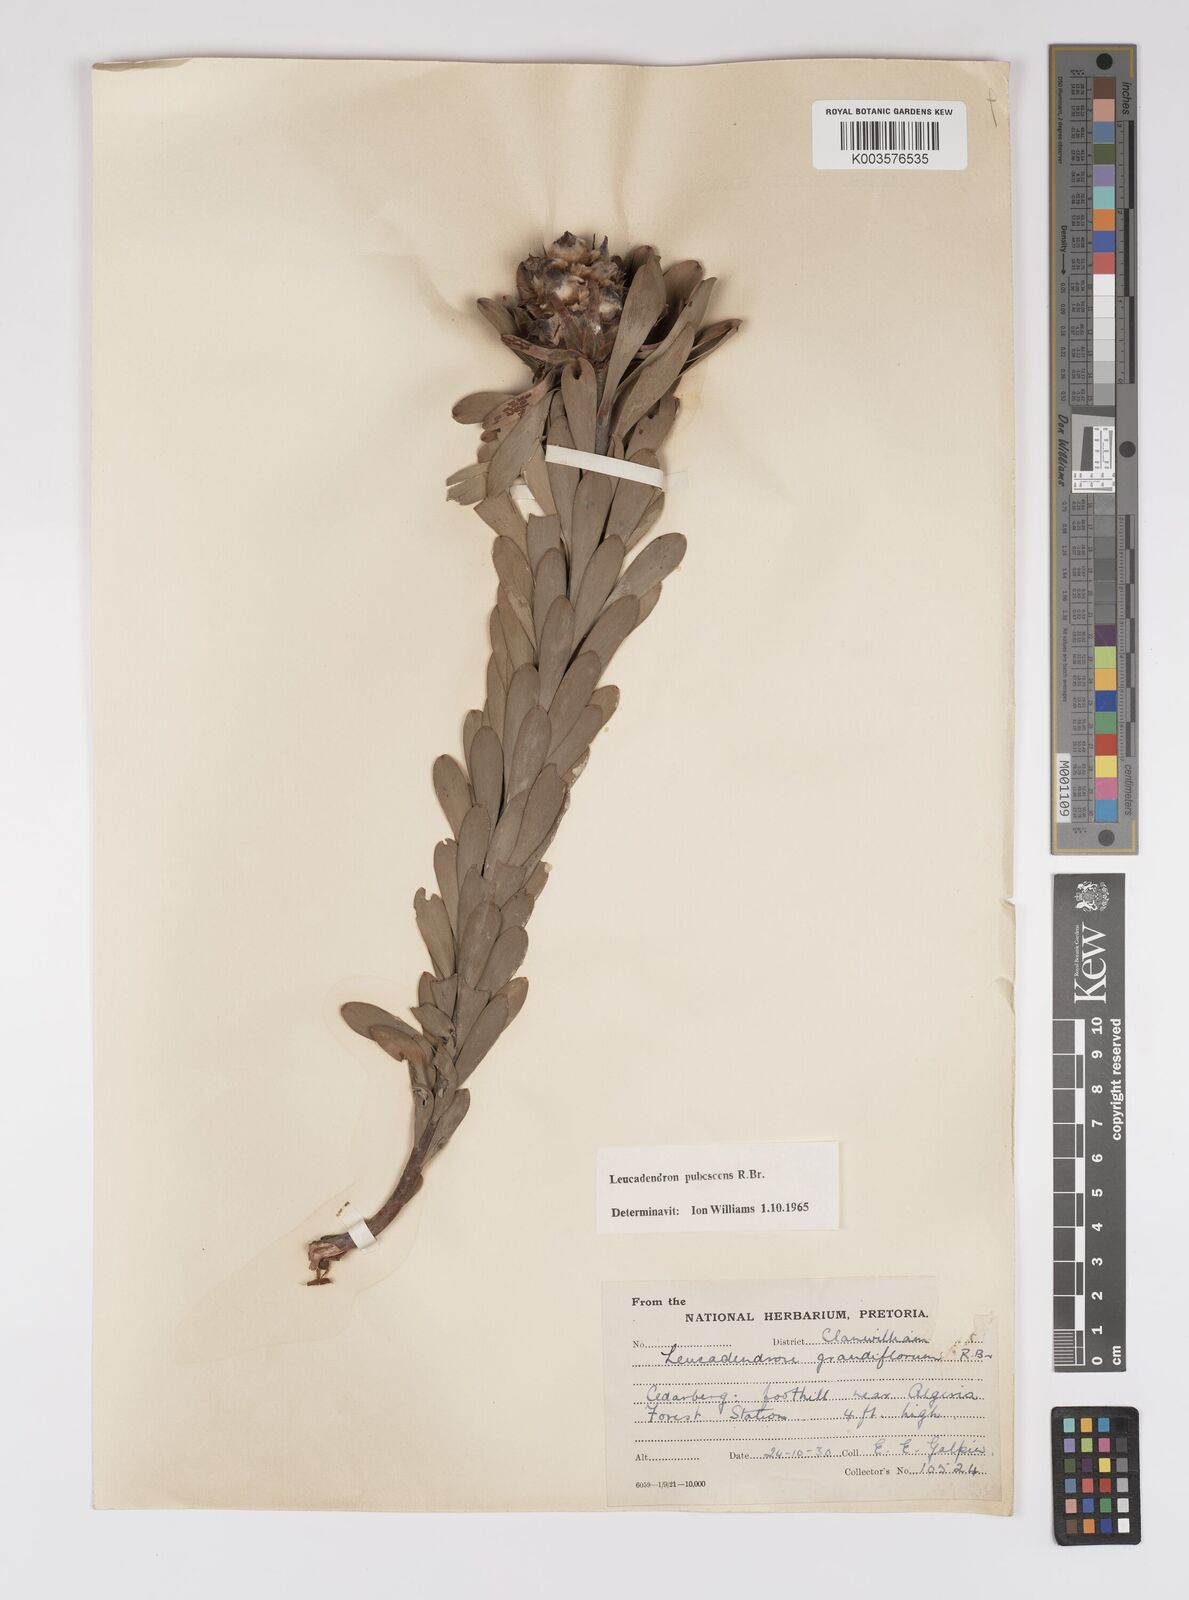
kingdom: Plantae
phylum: Tracheophyta
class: Magnoliopsida
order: Proteales
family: Proteaceae
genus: Leucadendron
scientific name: Leucadendron pubescens
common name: Grey conebush
